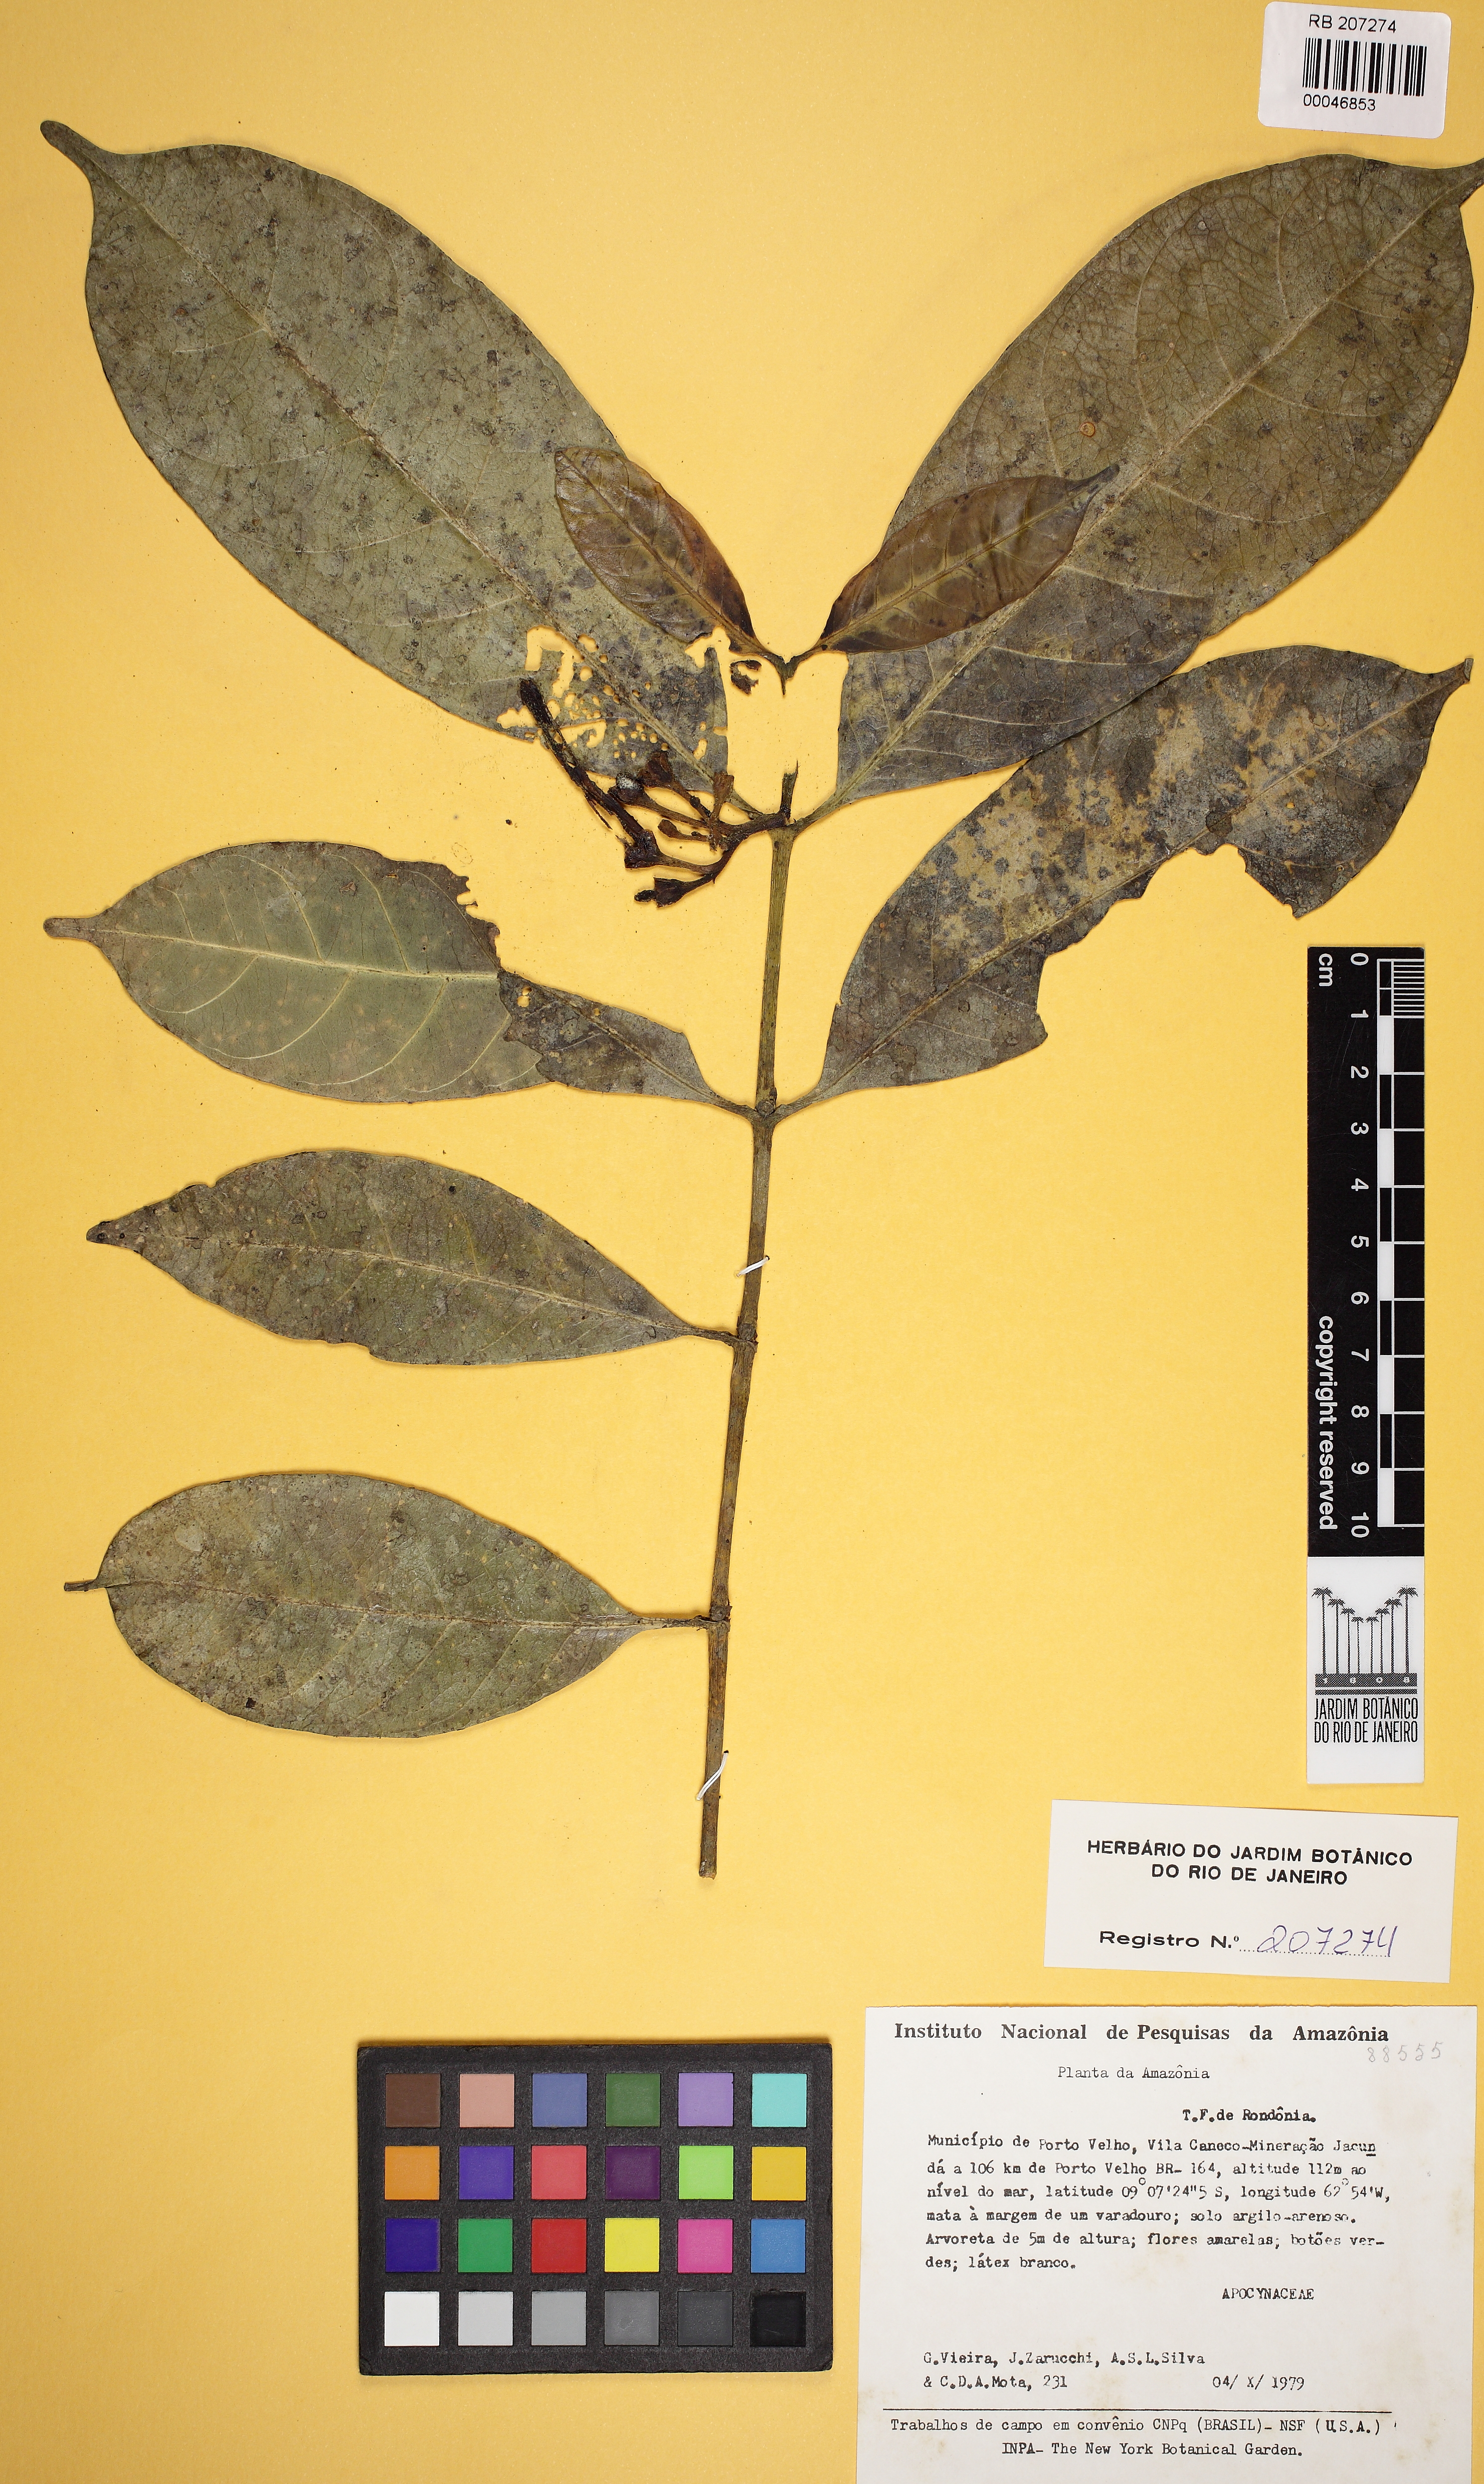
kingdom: Plantae
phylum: Tracheophyta
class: Magnoliopsida
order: Gentianales
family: Apocynaceae
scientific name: Apocynaceae
